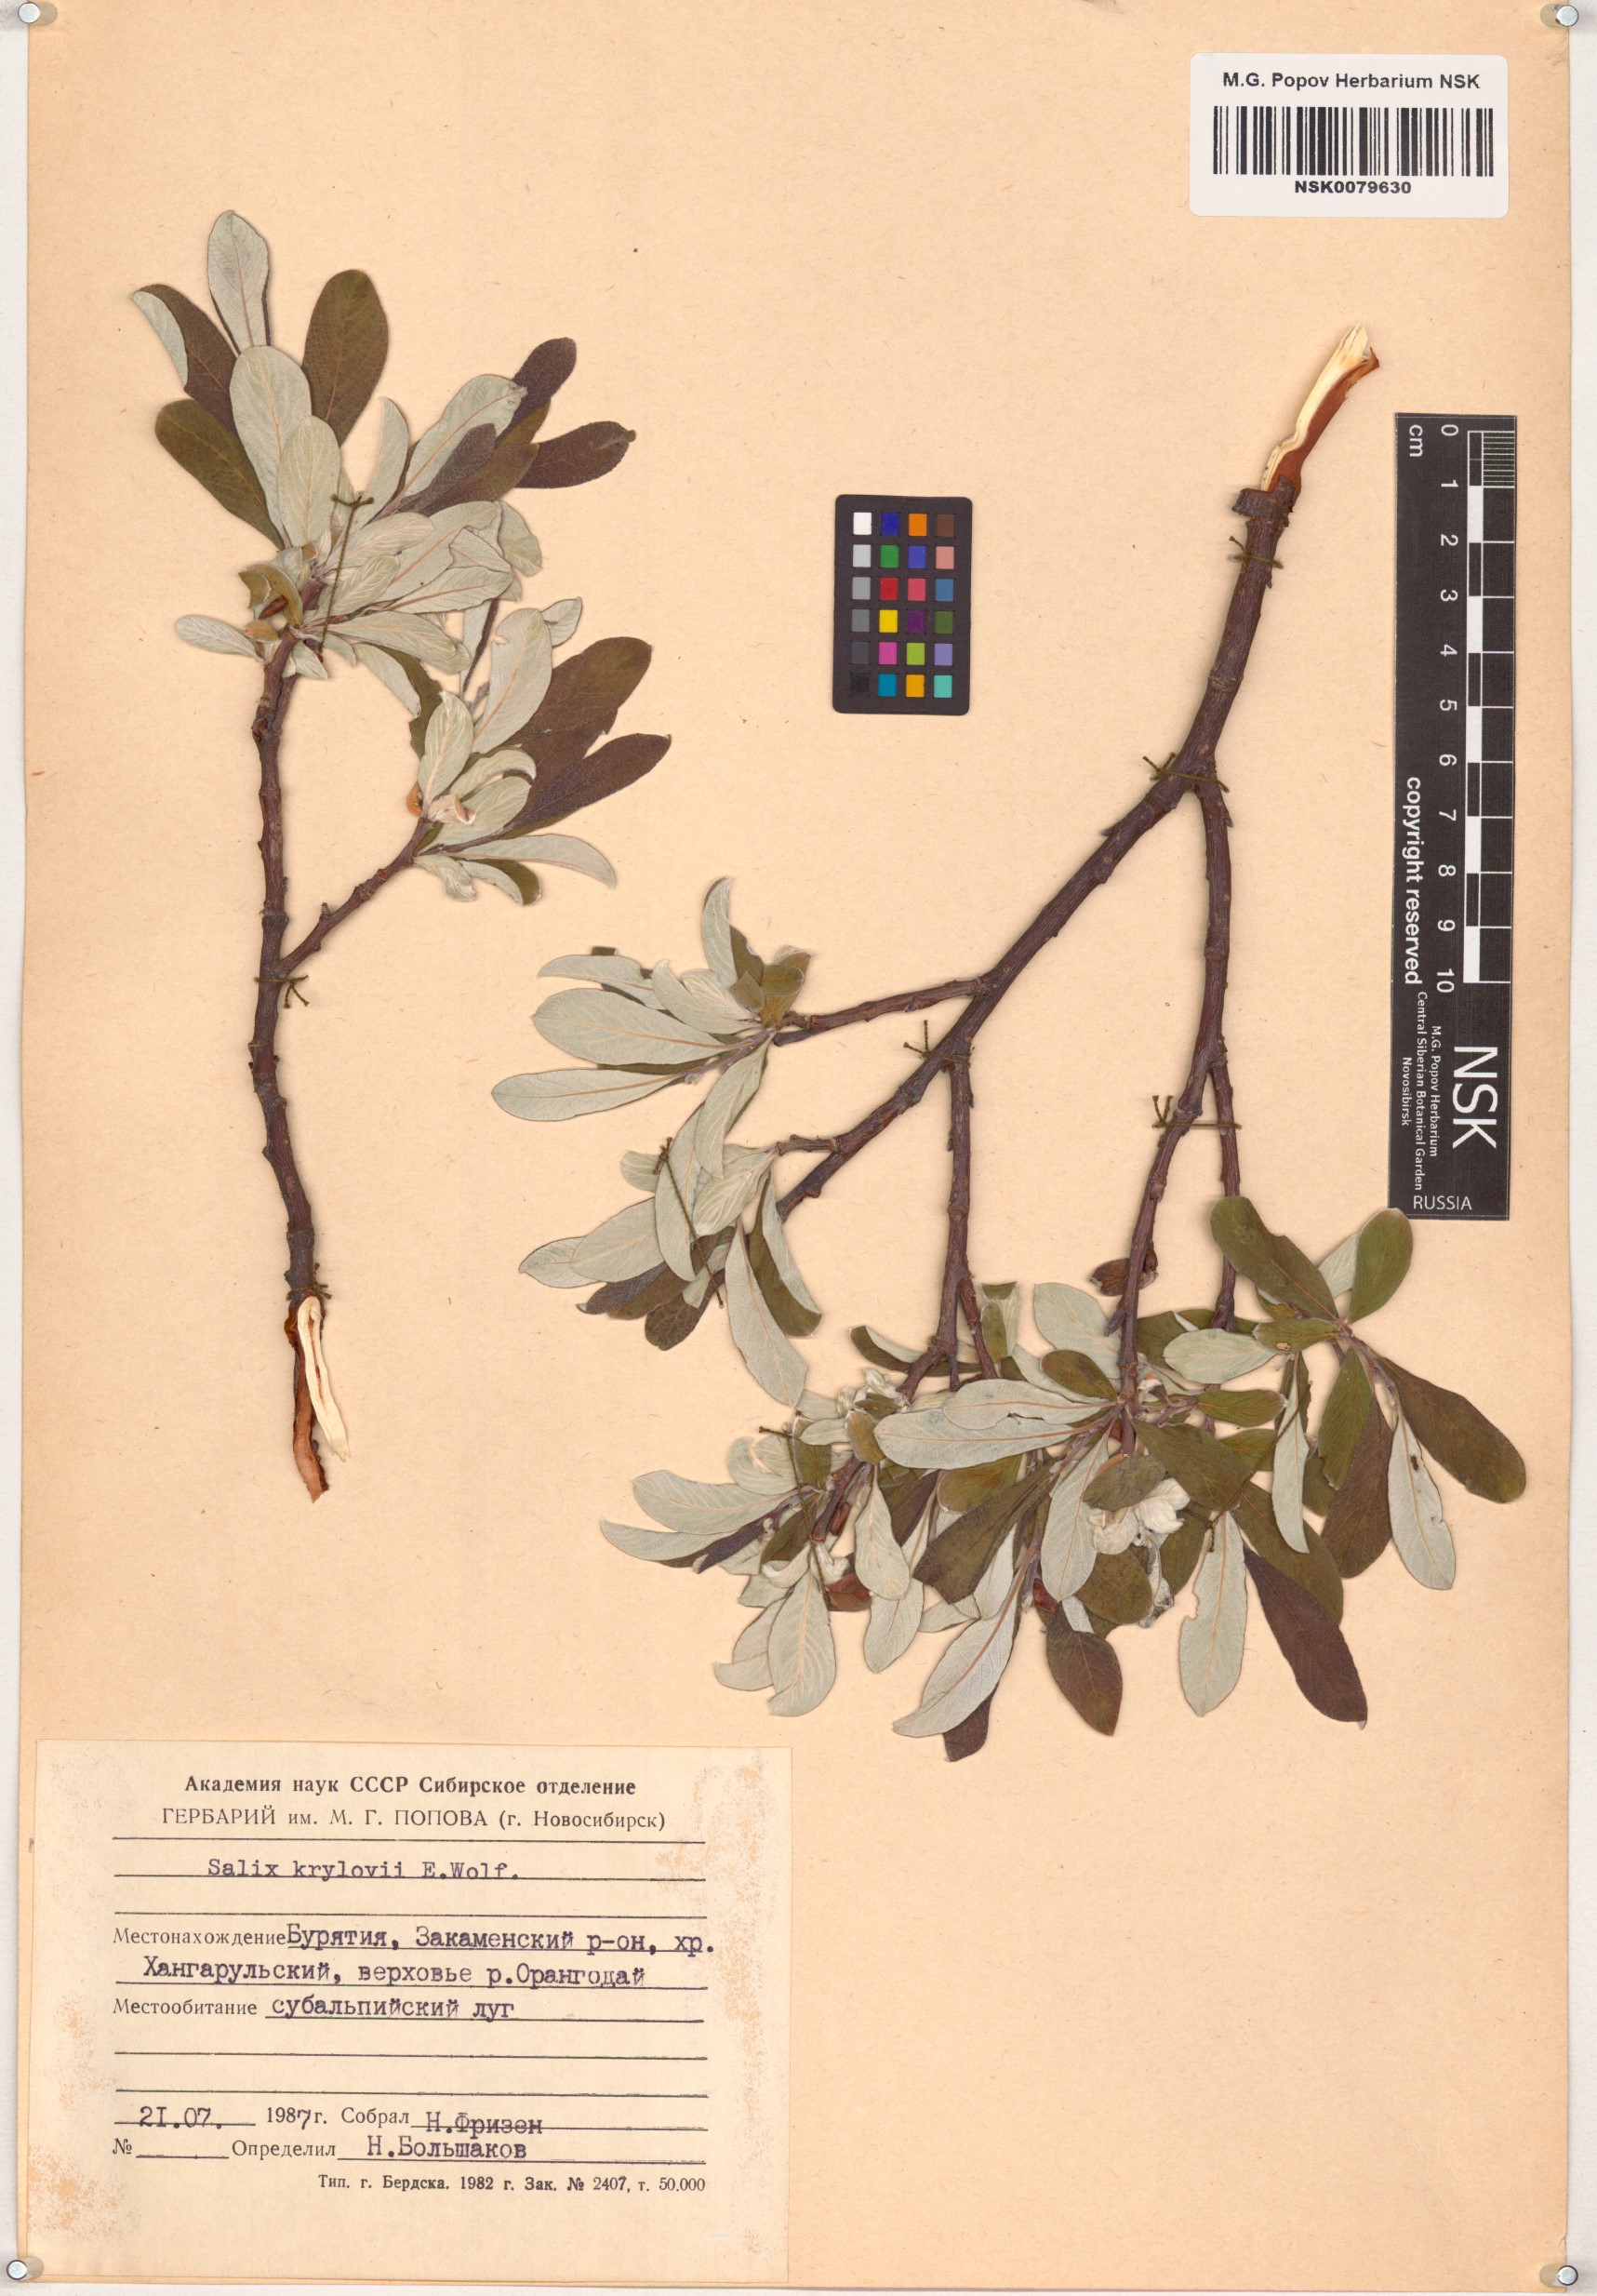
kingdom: Plantae
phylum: Tracheophyta
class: Magnoliopsida
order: Malpighiales
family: Salicaceae
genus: Salix
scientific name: Salix krylovii
